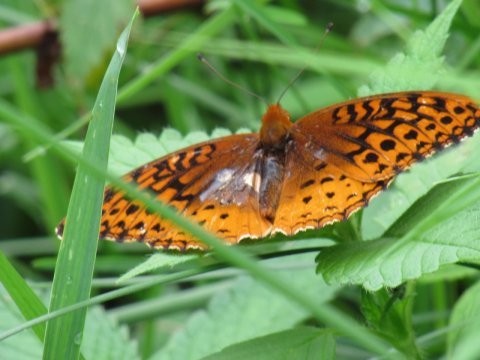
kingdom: Animalia
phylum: Arthropoda
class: Insecta
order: Lepidoptera
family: Nymphalidae
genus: Speyeria
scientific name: Speyeria cybele
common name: Great Spangled Fritillary
